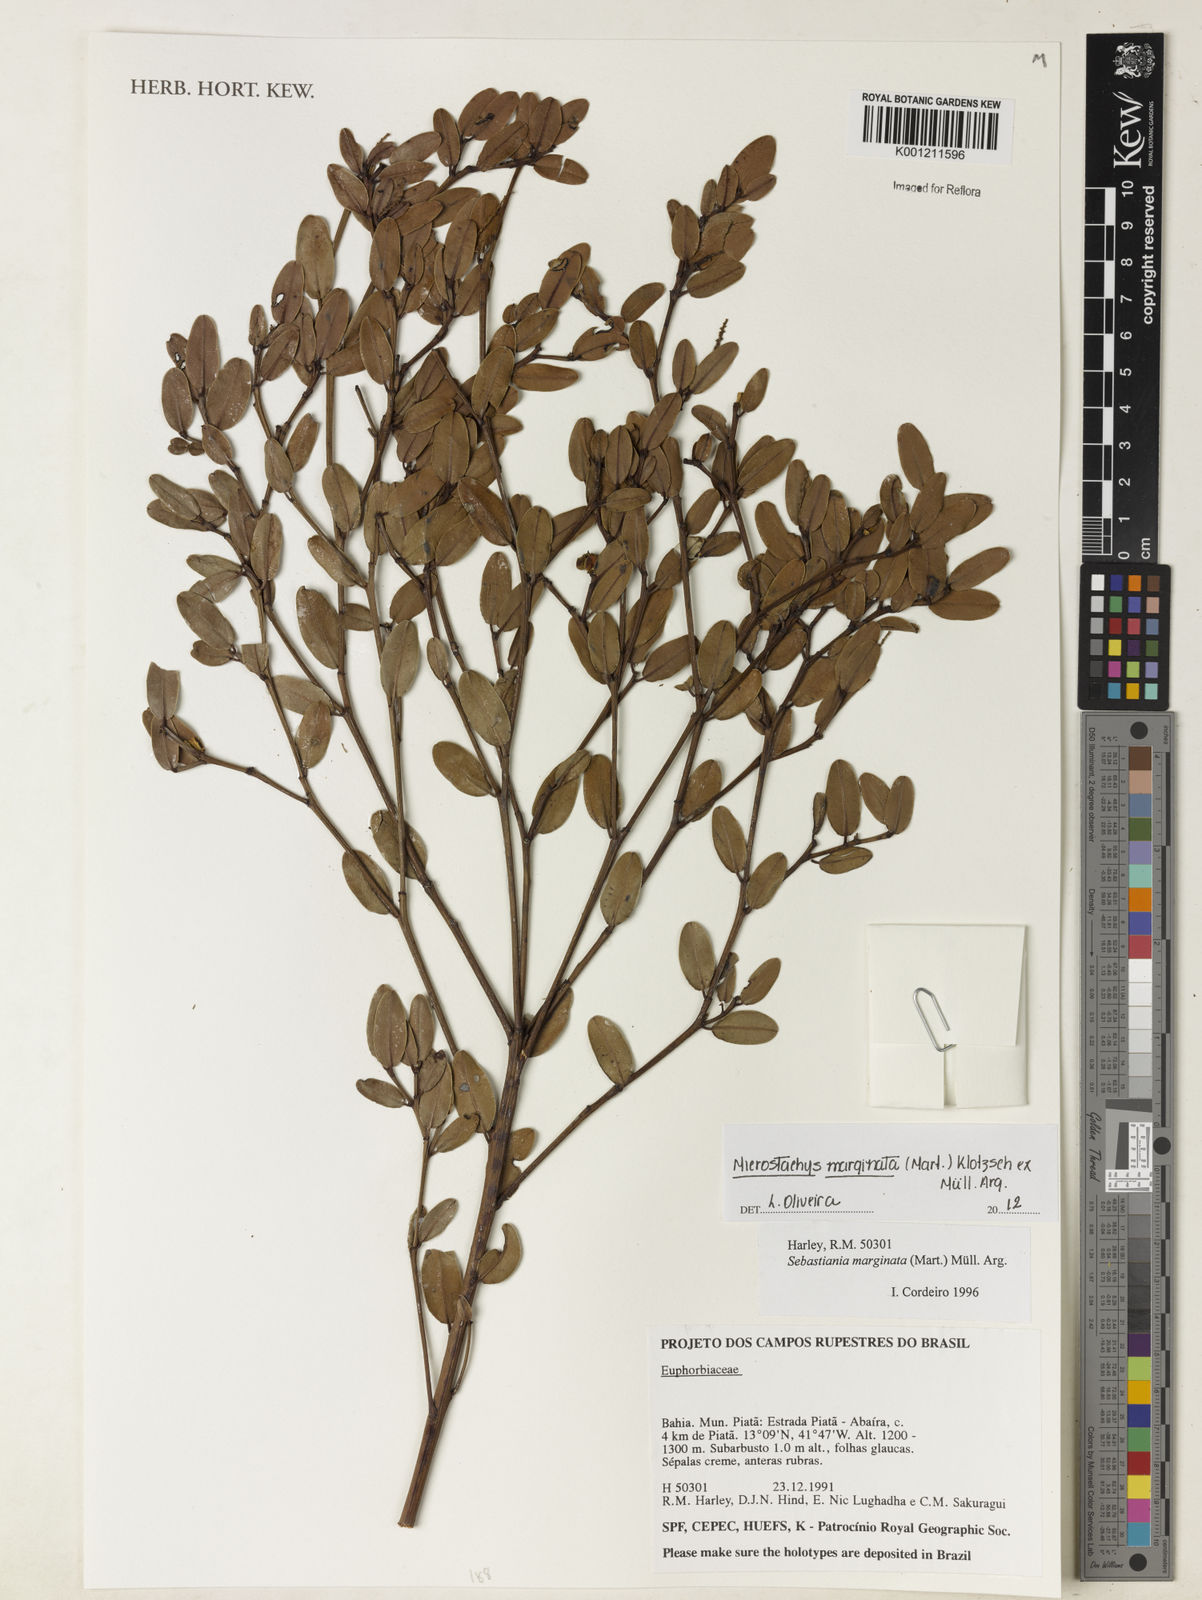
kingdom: Plantae
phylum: Tracheophyta
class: Magnoliopsida
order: Malpighiales
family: Euphorbiaceae
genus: Microstachys
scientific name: Microstachys
